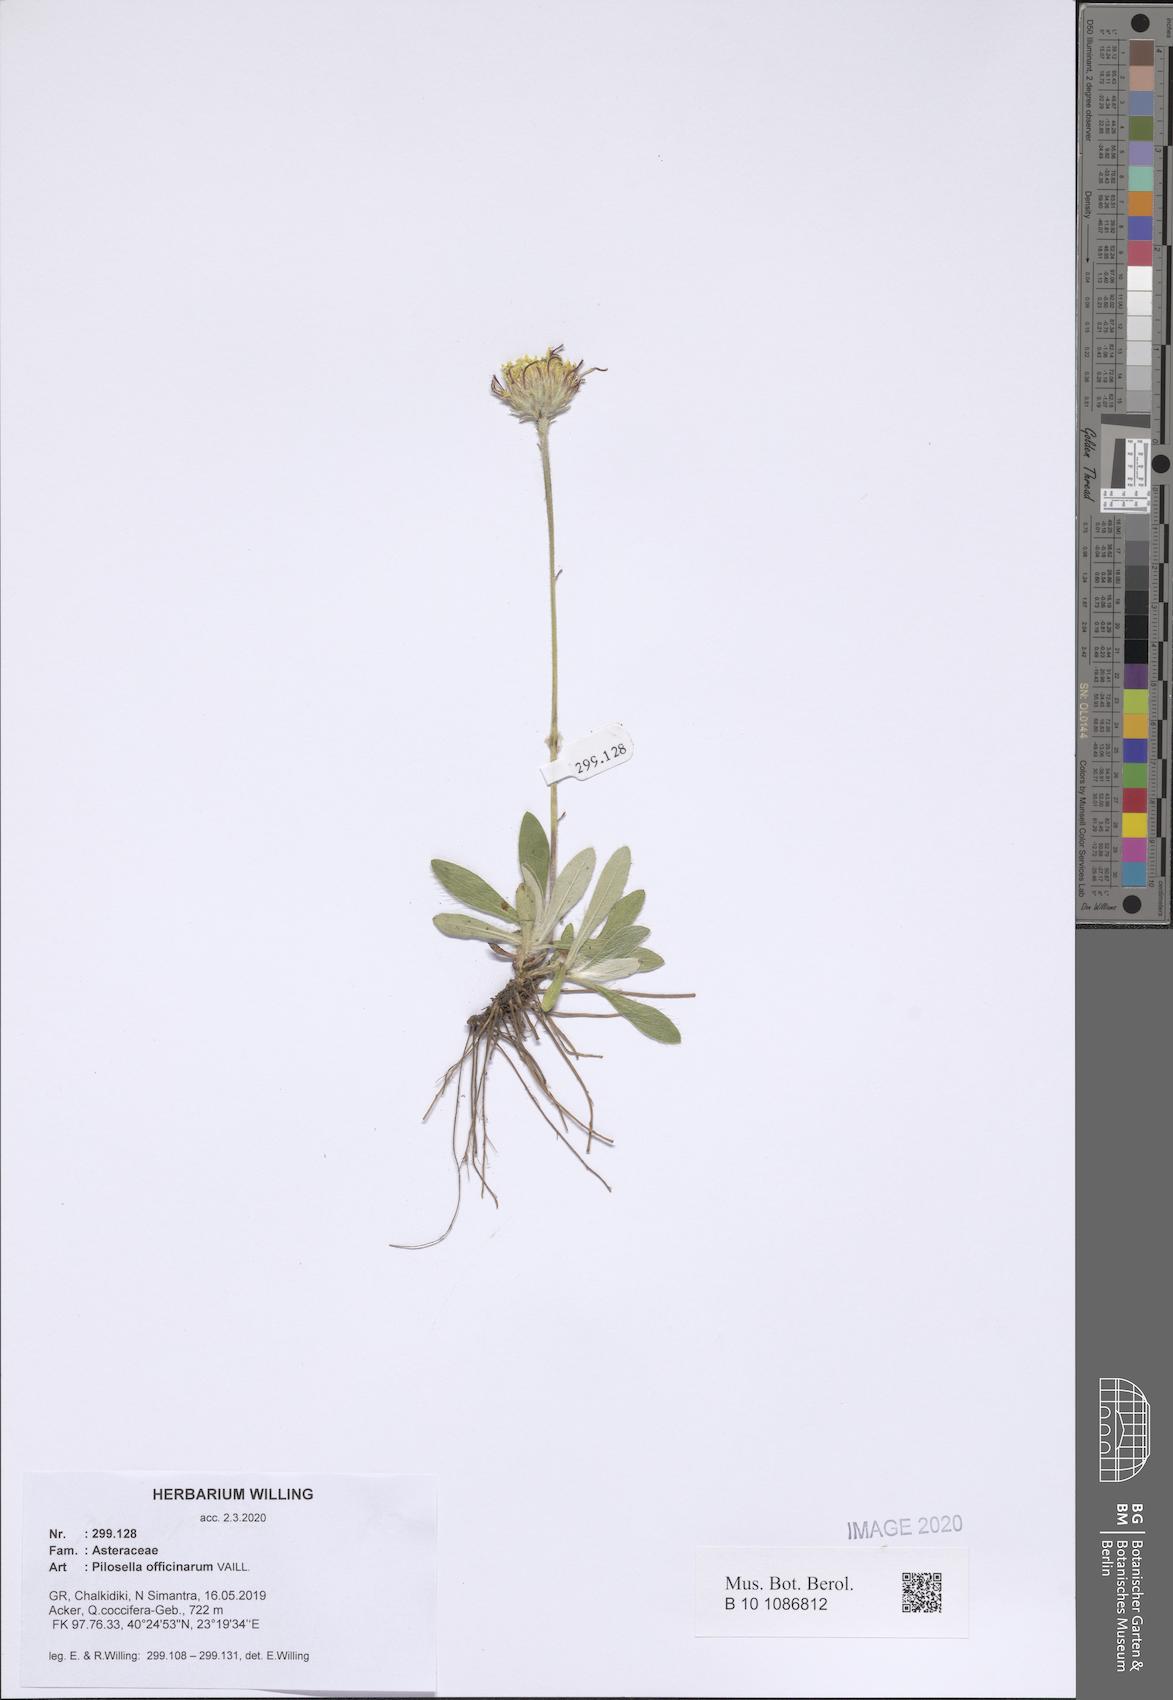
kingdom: Plantae
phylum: Tracheophyta
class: Magnoliopsida
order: Asterales
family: Asteraceae
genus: Pilosella
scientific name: Pilosella officinarum
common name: Mouse-ear hawkweed
